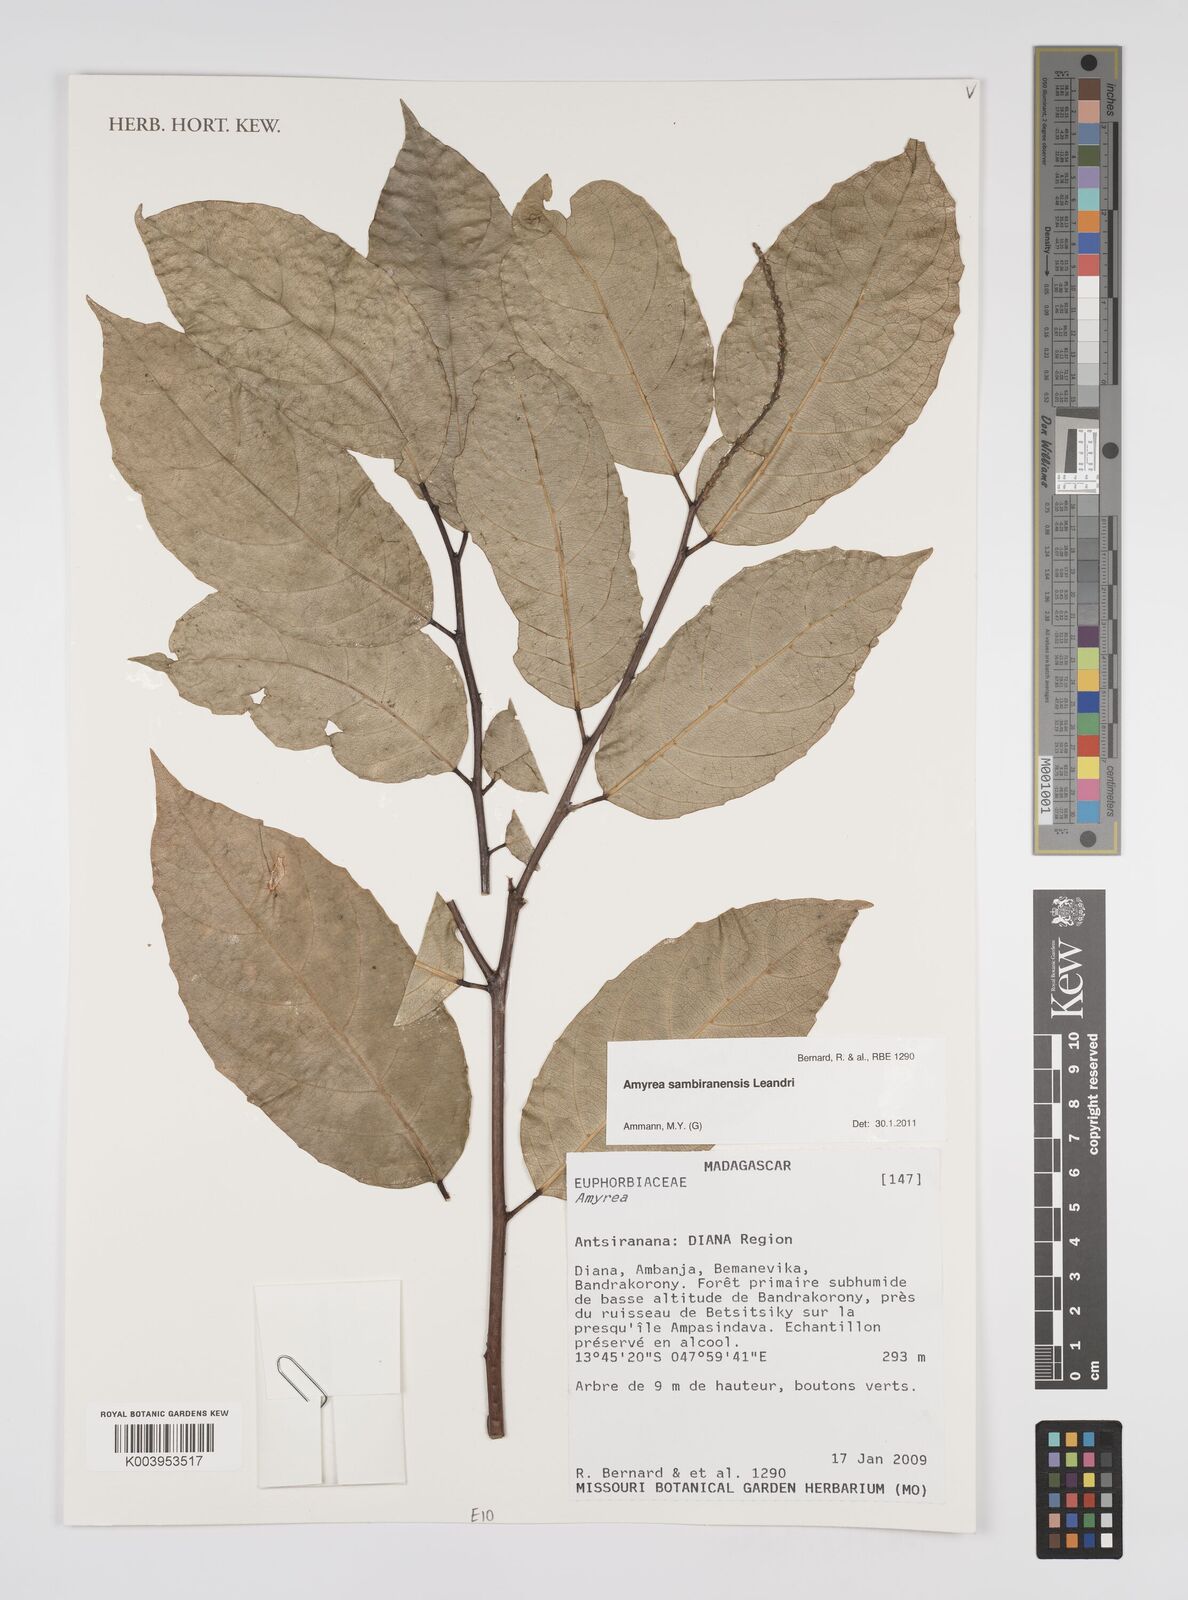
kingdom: Plantae
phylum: Tracheophyta
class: Magnoliopsida
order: Malpighiales
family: Euphorbiaceae
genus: Amyrea
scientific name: Amyrea sambiranensis
